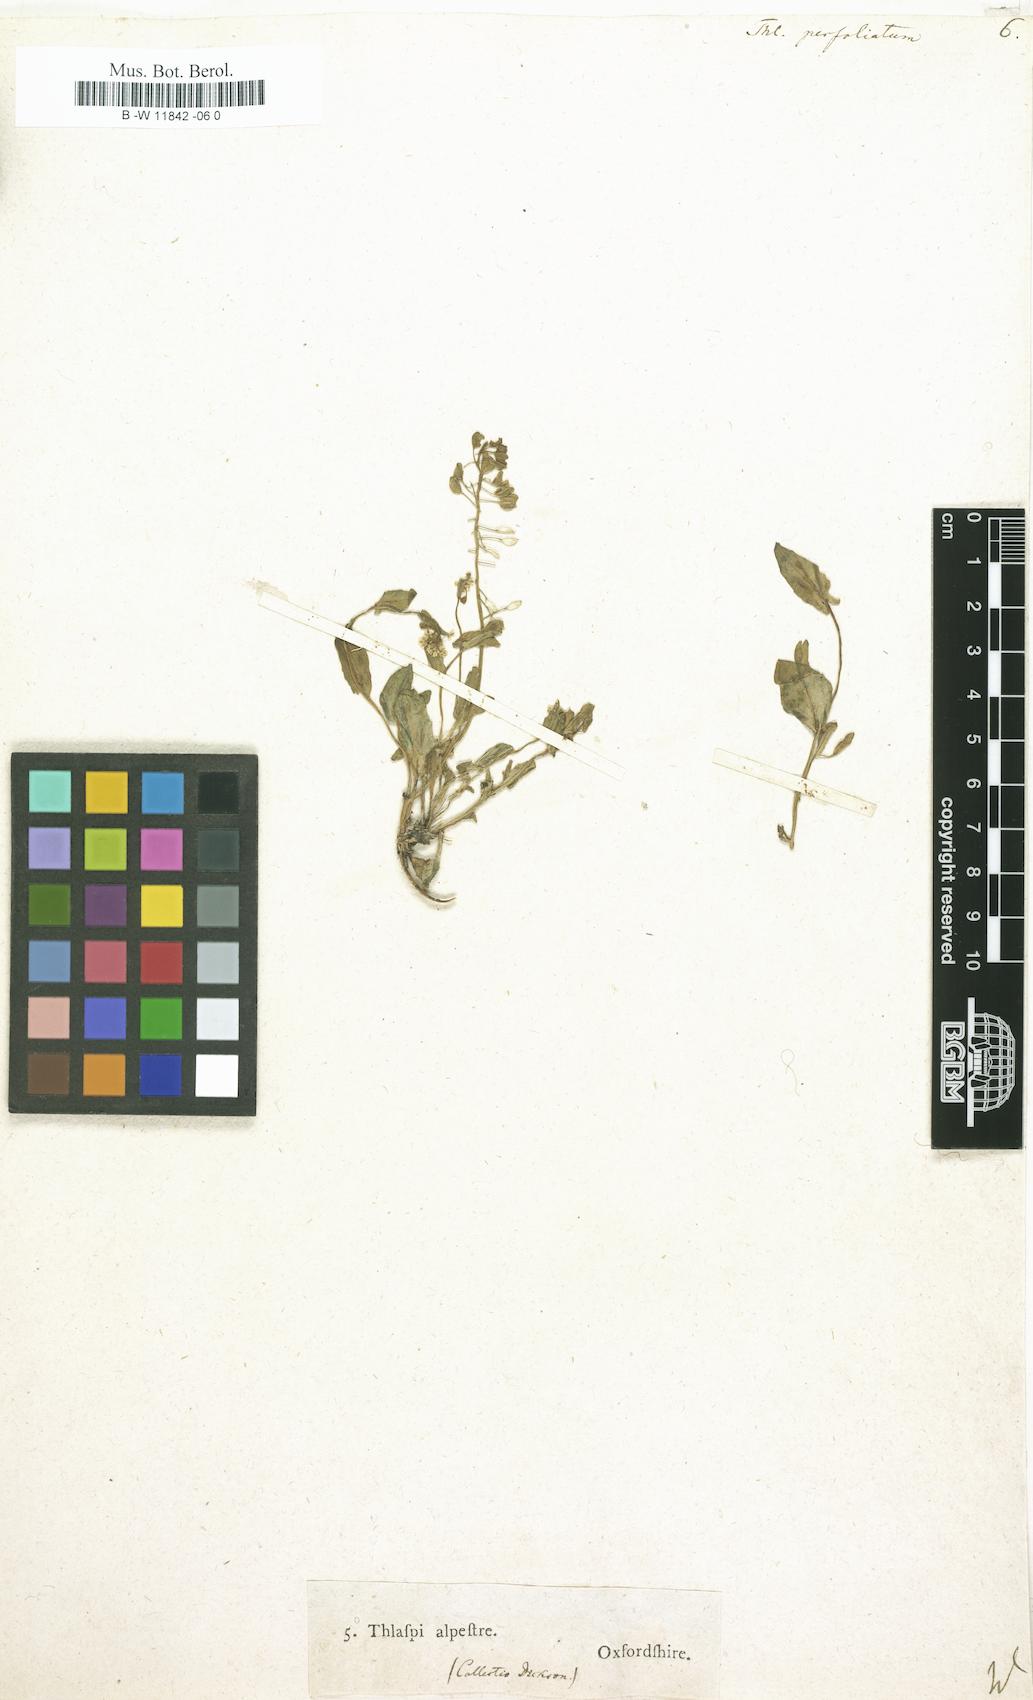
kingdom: Plantae
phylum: Tracheophyta
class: Magnoliopsida
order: Brassicales
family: Brassicaceae
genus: Noccaea
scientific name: Noccaea perfoliata
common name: Perfoliate pennycress
